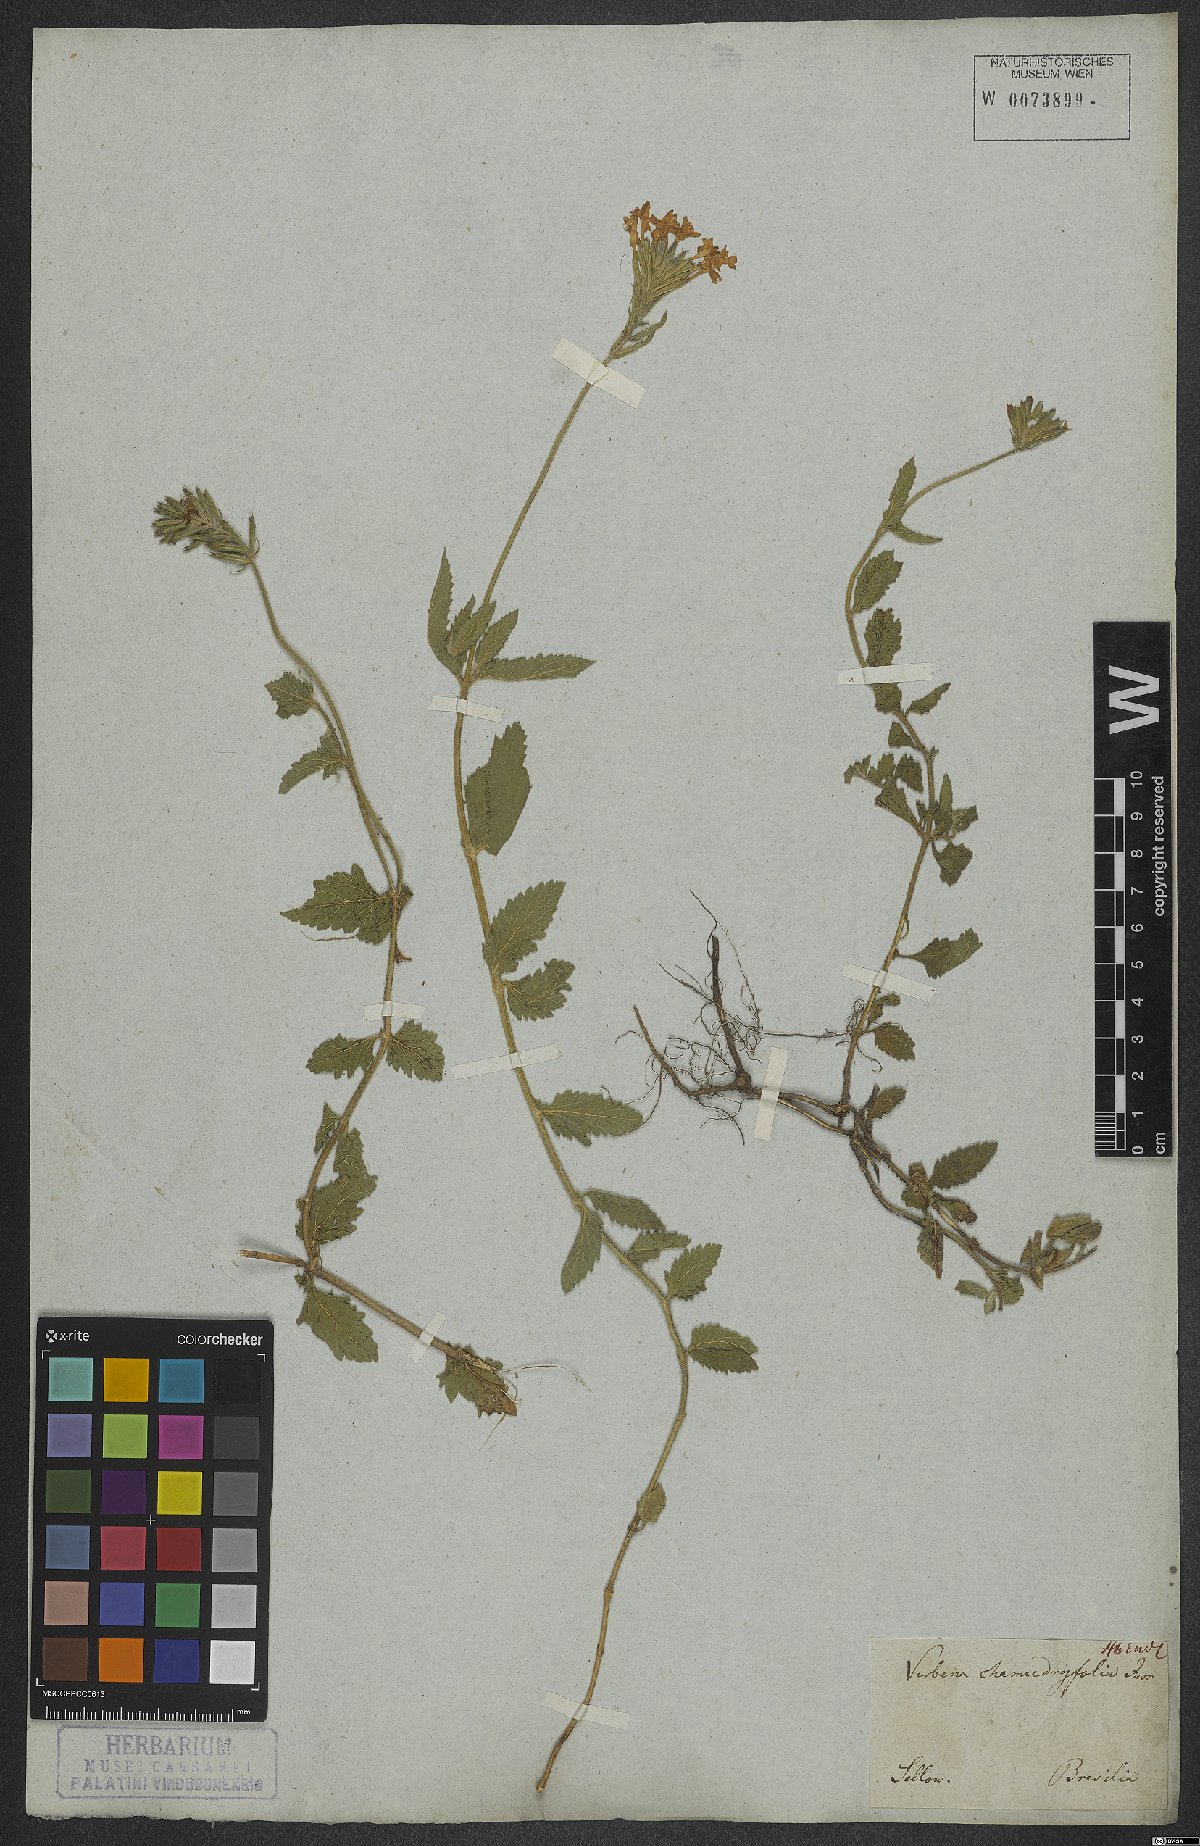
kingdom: Plantae
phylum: Tracheophyta
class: Magnoliopsida
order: Lamiales
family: Verbenaceae
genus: Verbena
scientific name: Verbena peruviana
